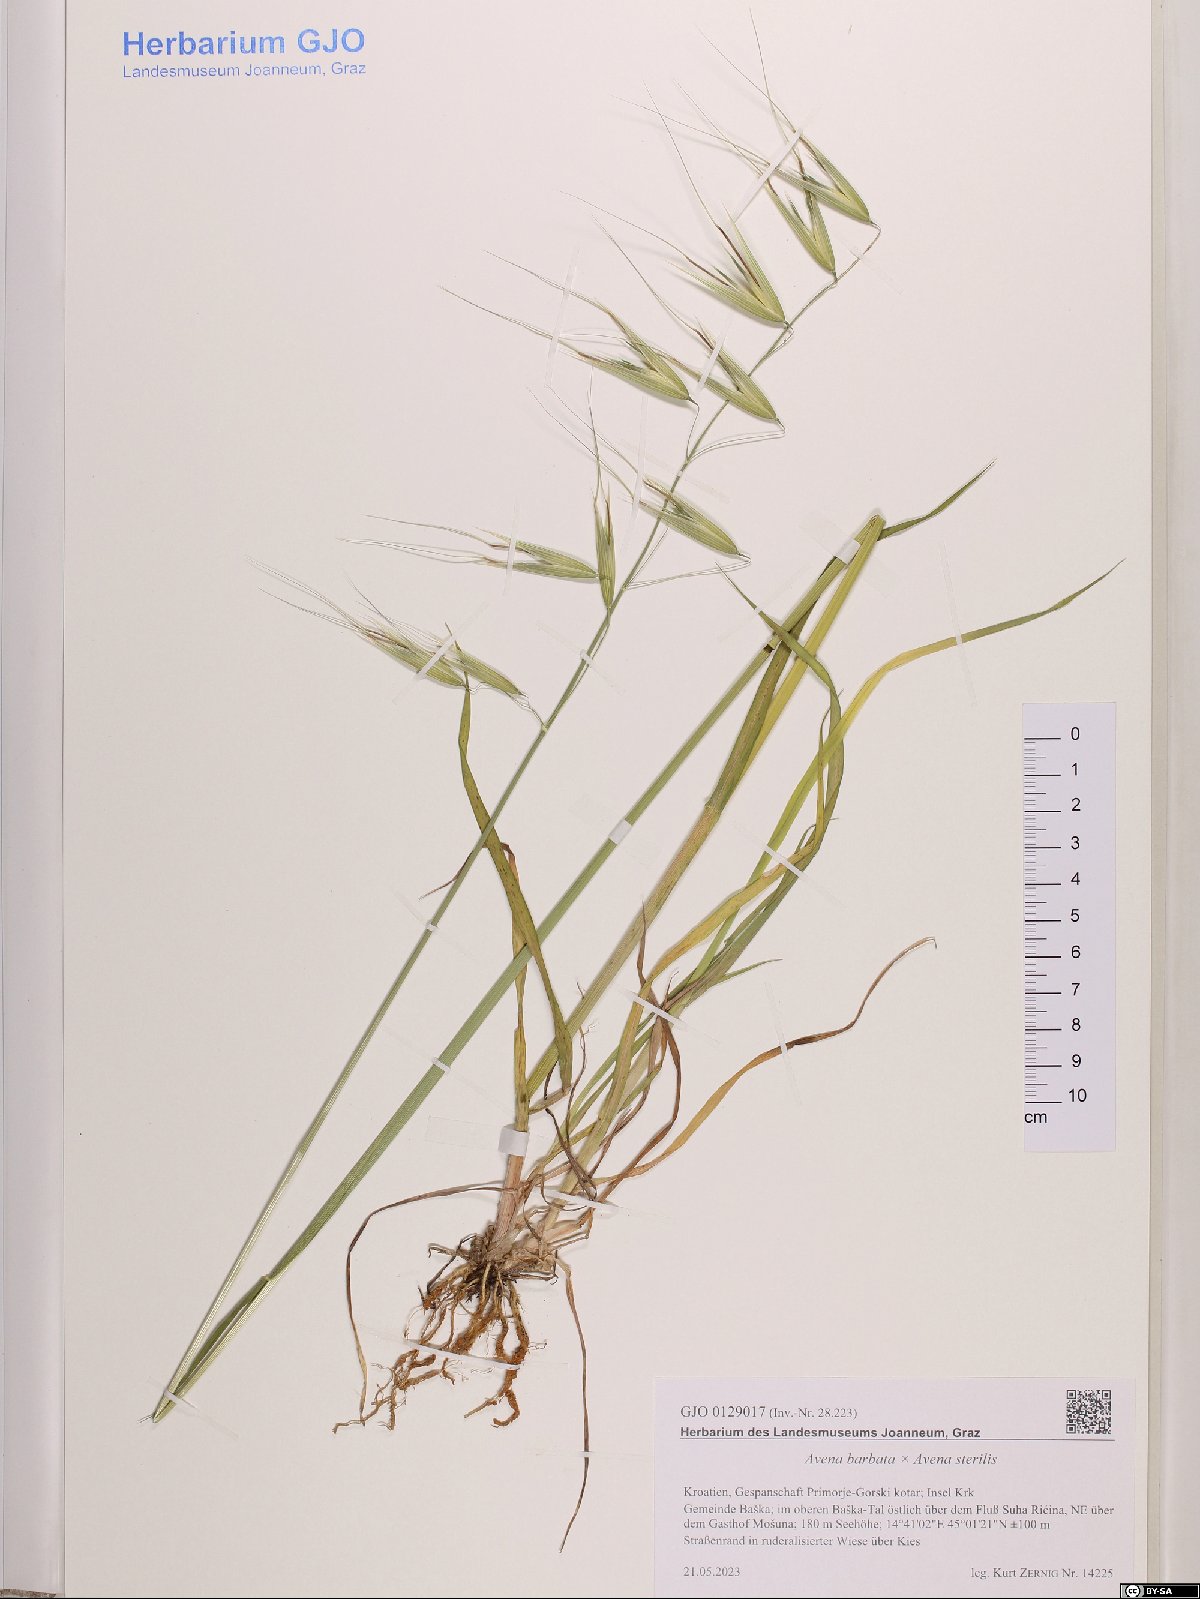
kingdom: Plantae
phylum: Tracheophyta
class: Liliopsida
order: Poales
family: Poaceae
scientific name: Poaceae
